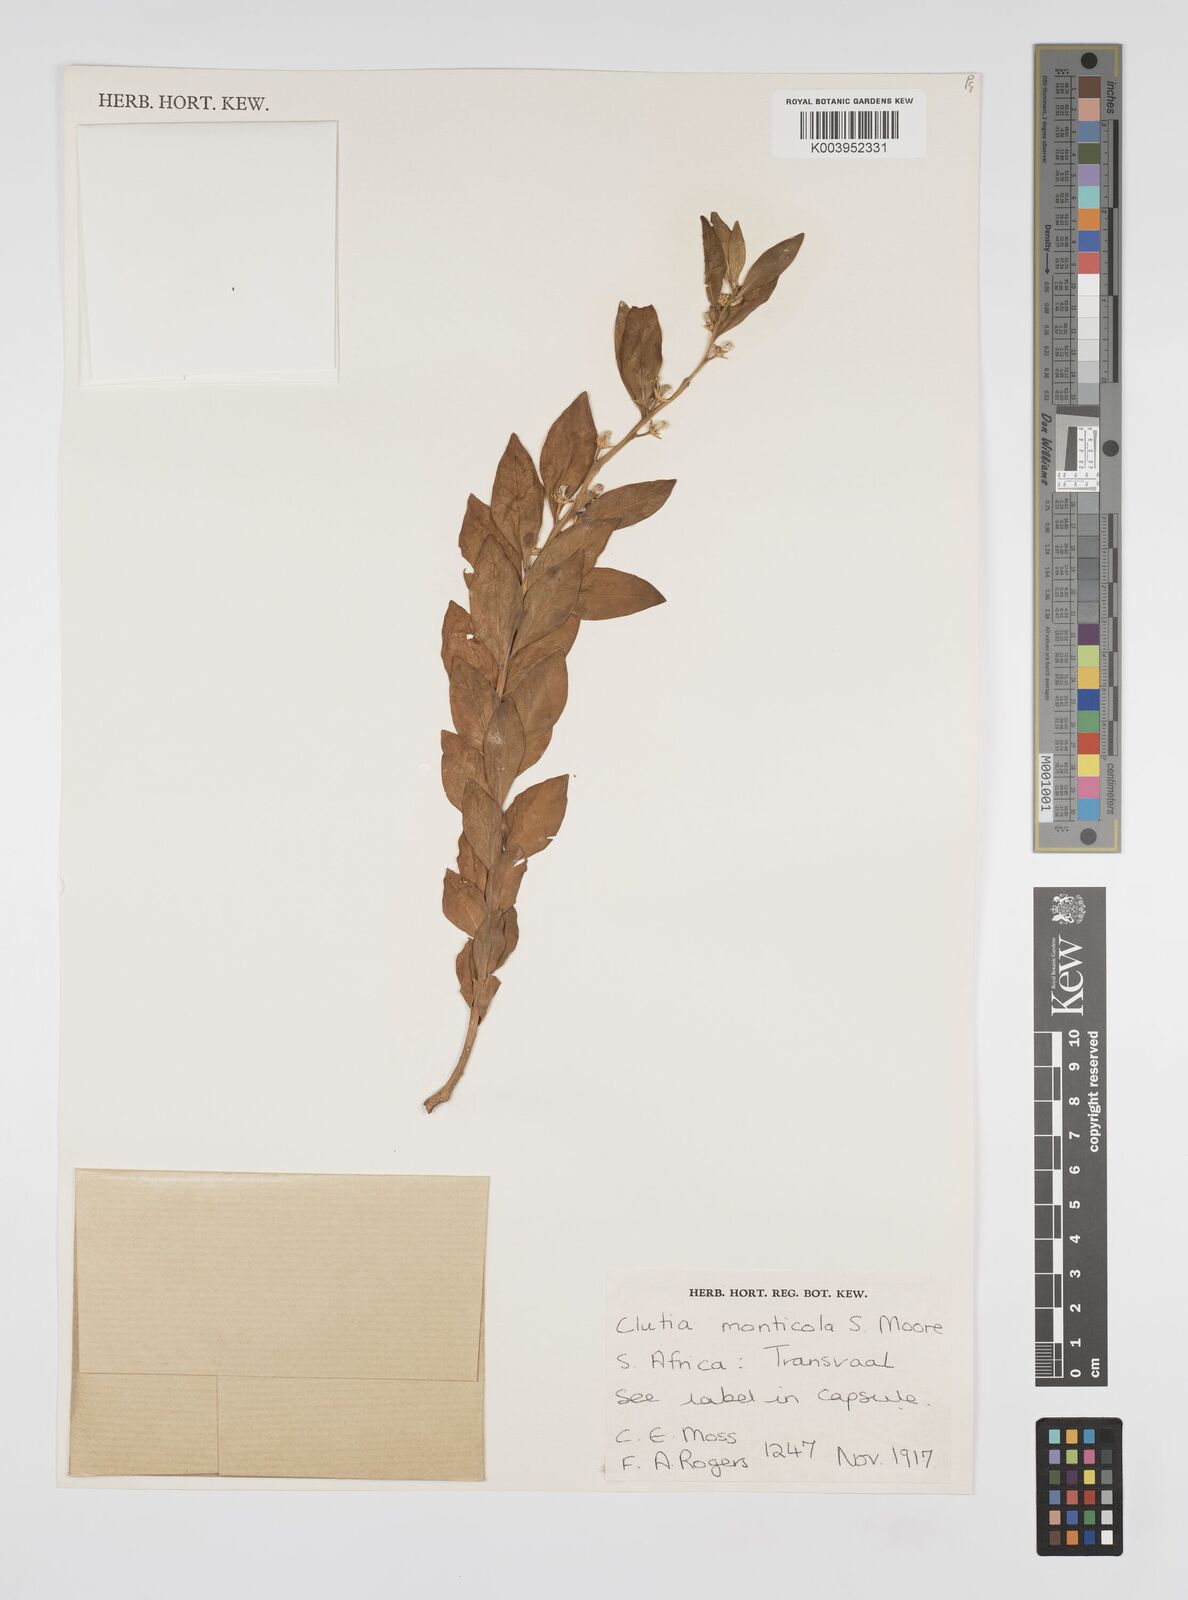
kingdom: Plantae
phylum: Tracheophyta
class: Magnoliopsida
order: Malpighiales
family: Peraceae
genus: Clutia
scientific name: Clutia monticola
